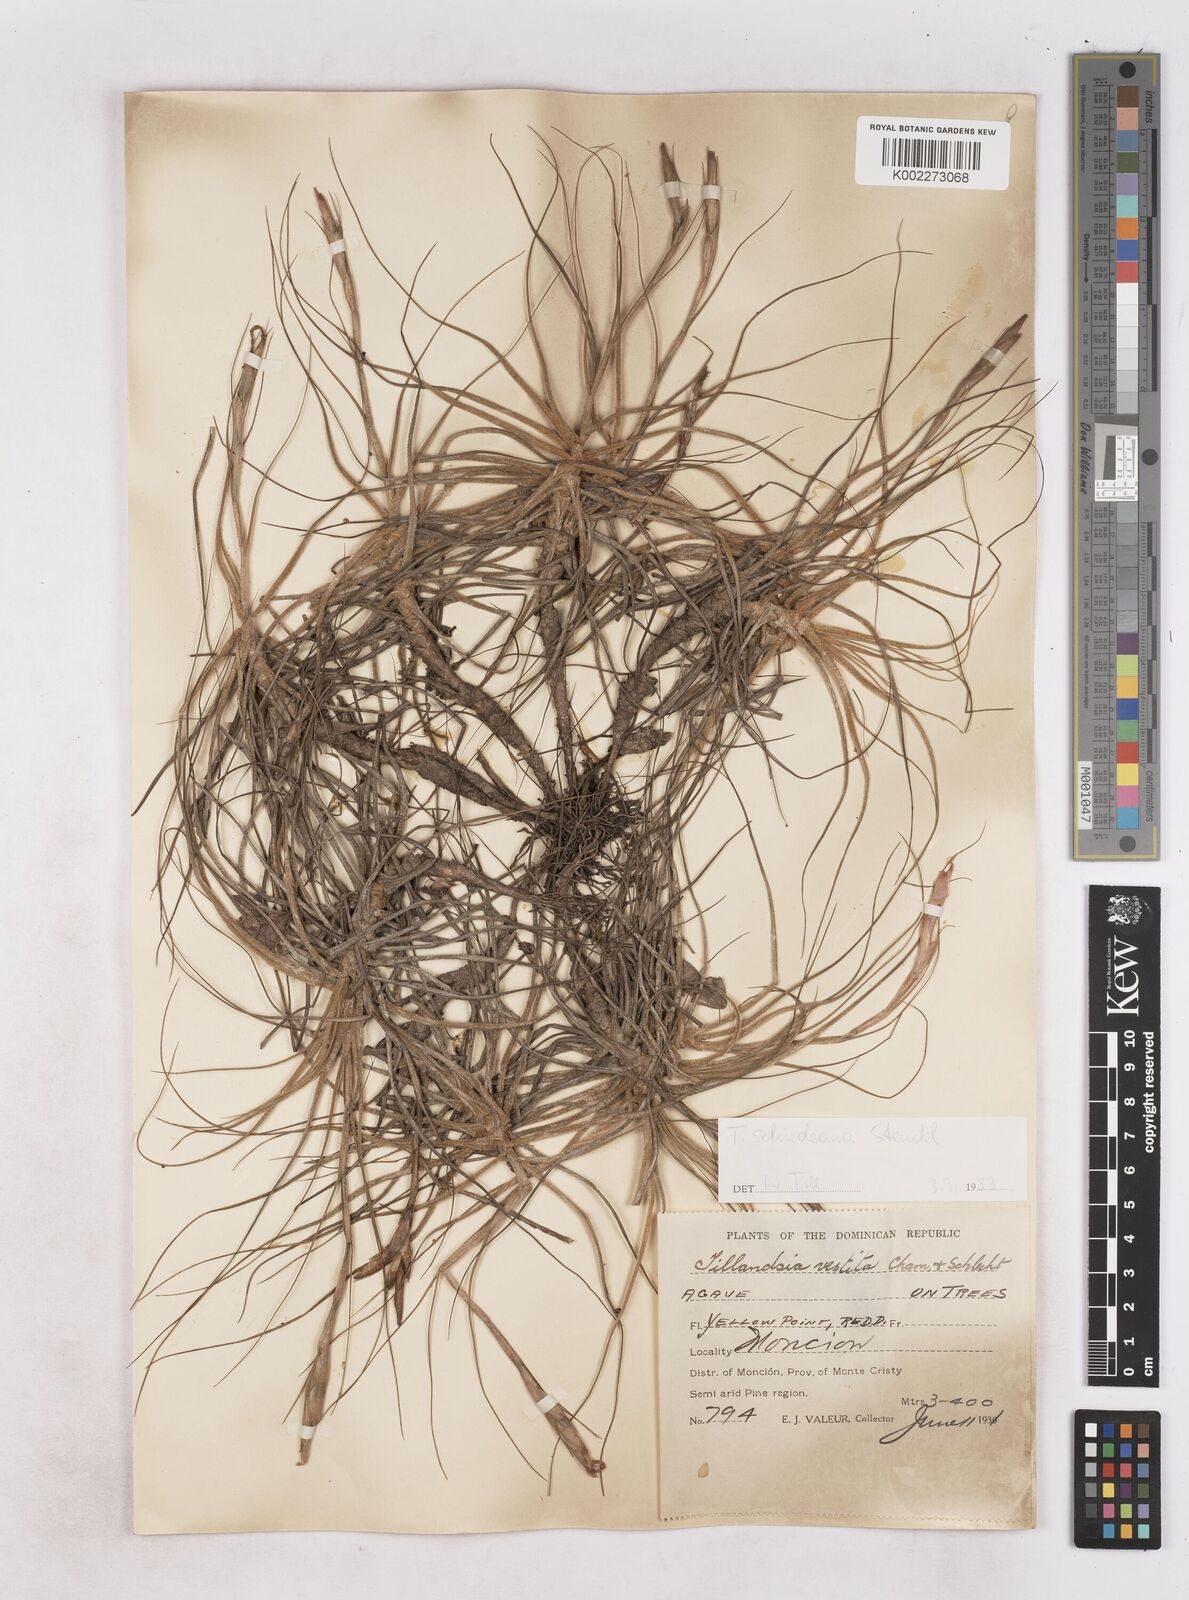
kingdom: Plantae
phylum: Tracheophyta
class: Liliopsida
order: Poales
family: Bromeliaceae
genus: Tillandsia
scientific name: Tillandsia schiedeana
